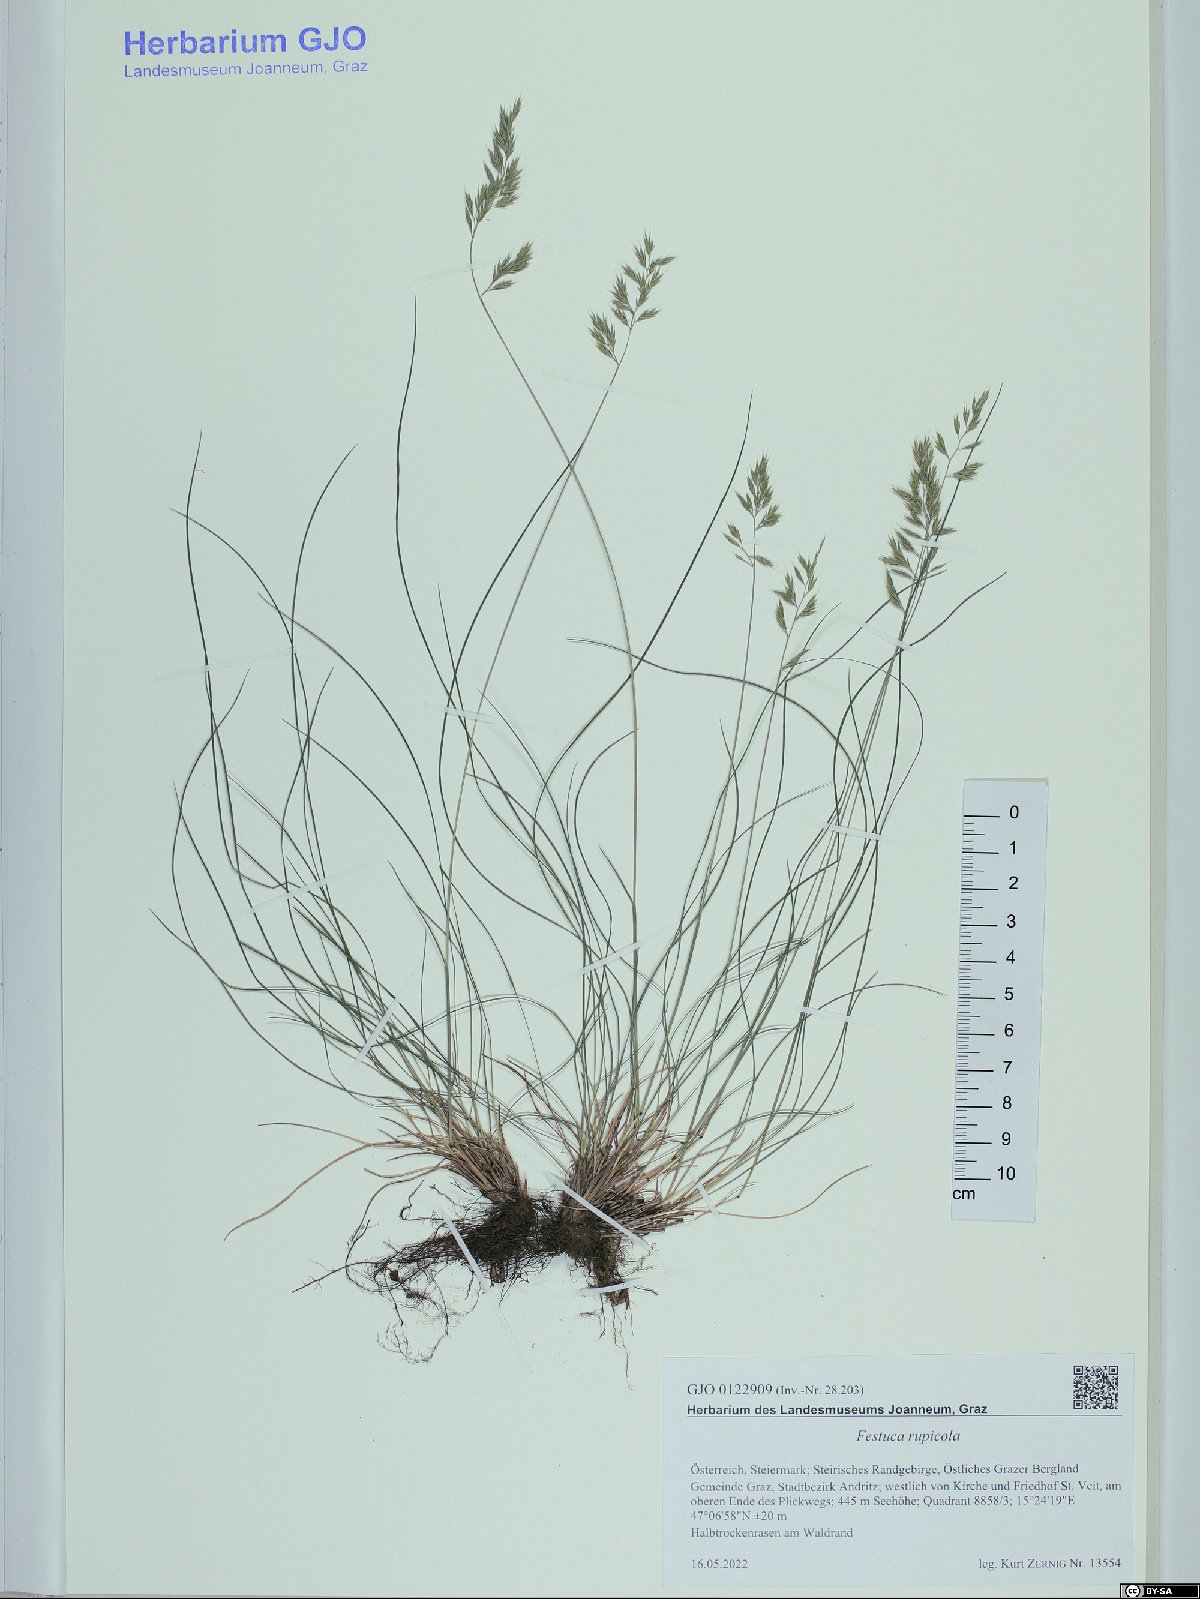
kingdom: Plantae
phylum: Tracheophyta
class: Liliopsida
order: Poales
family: Poaceae
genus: Festuca
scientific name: Festuca rupicola
